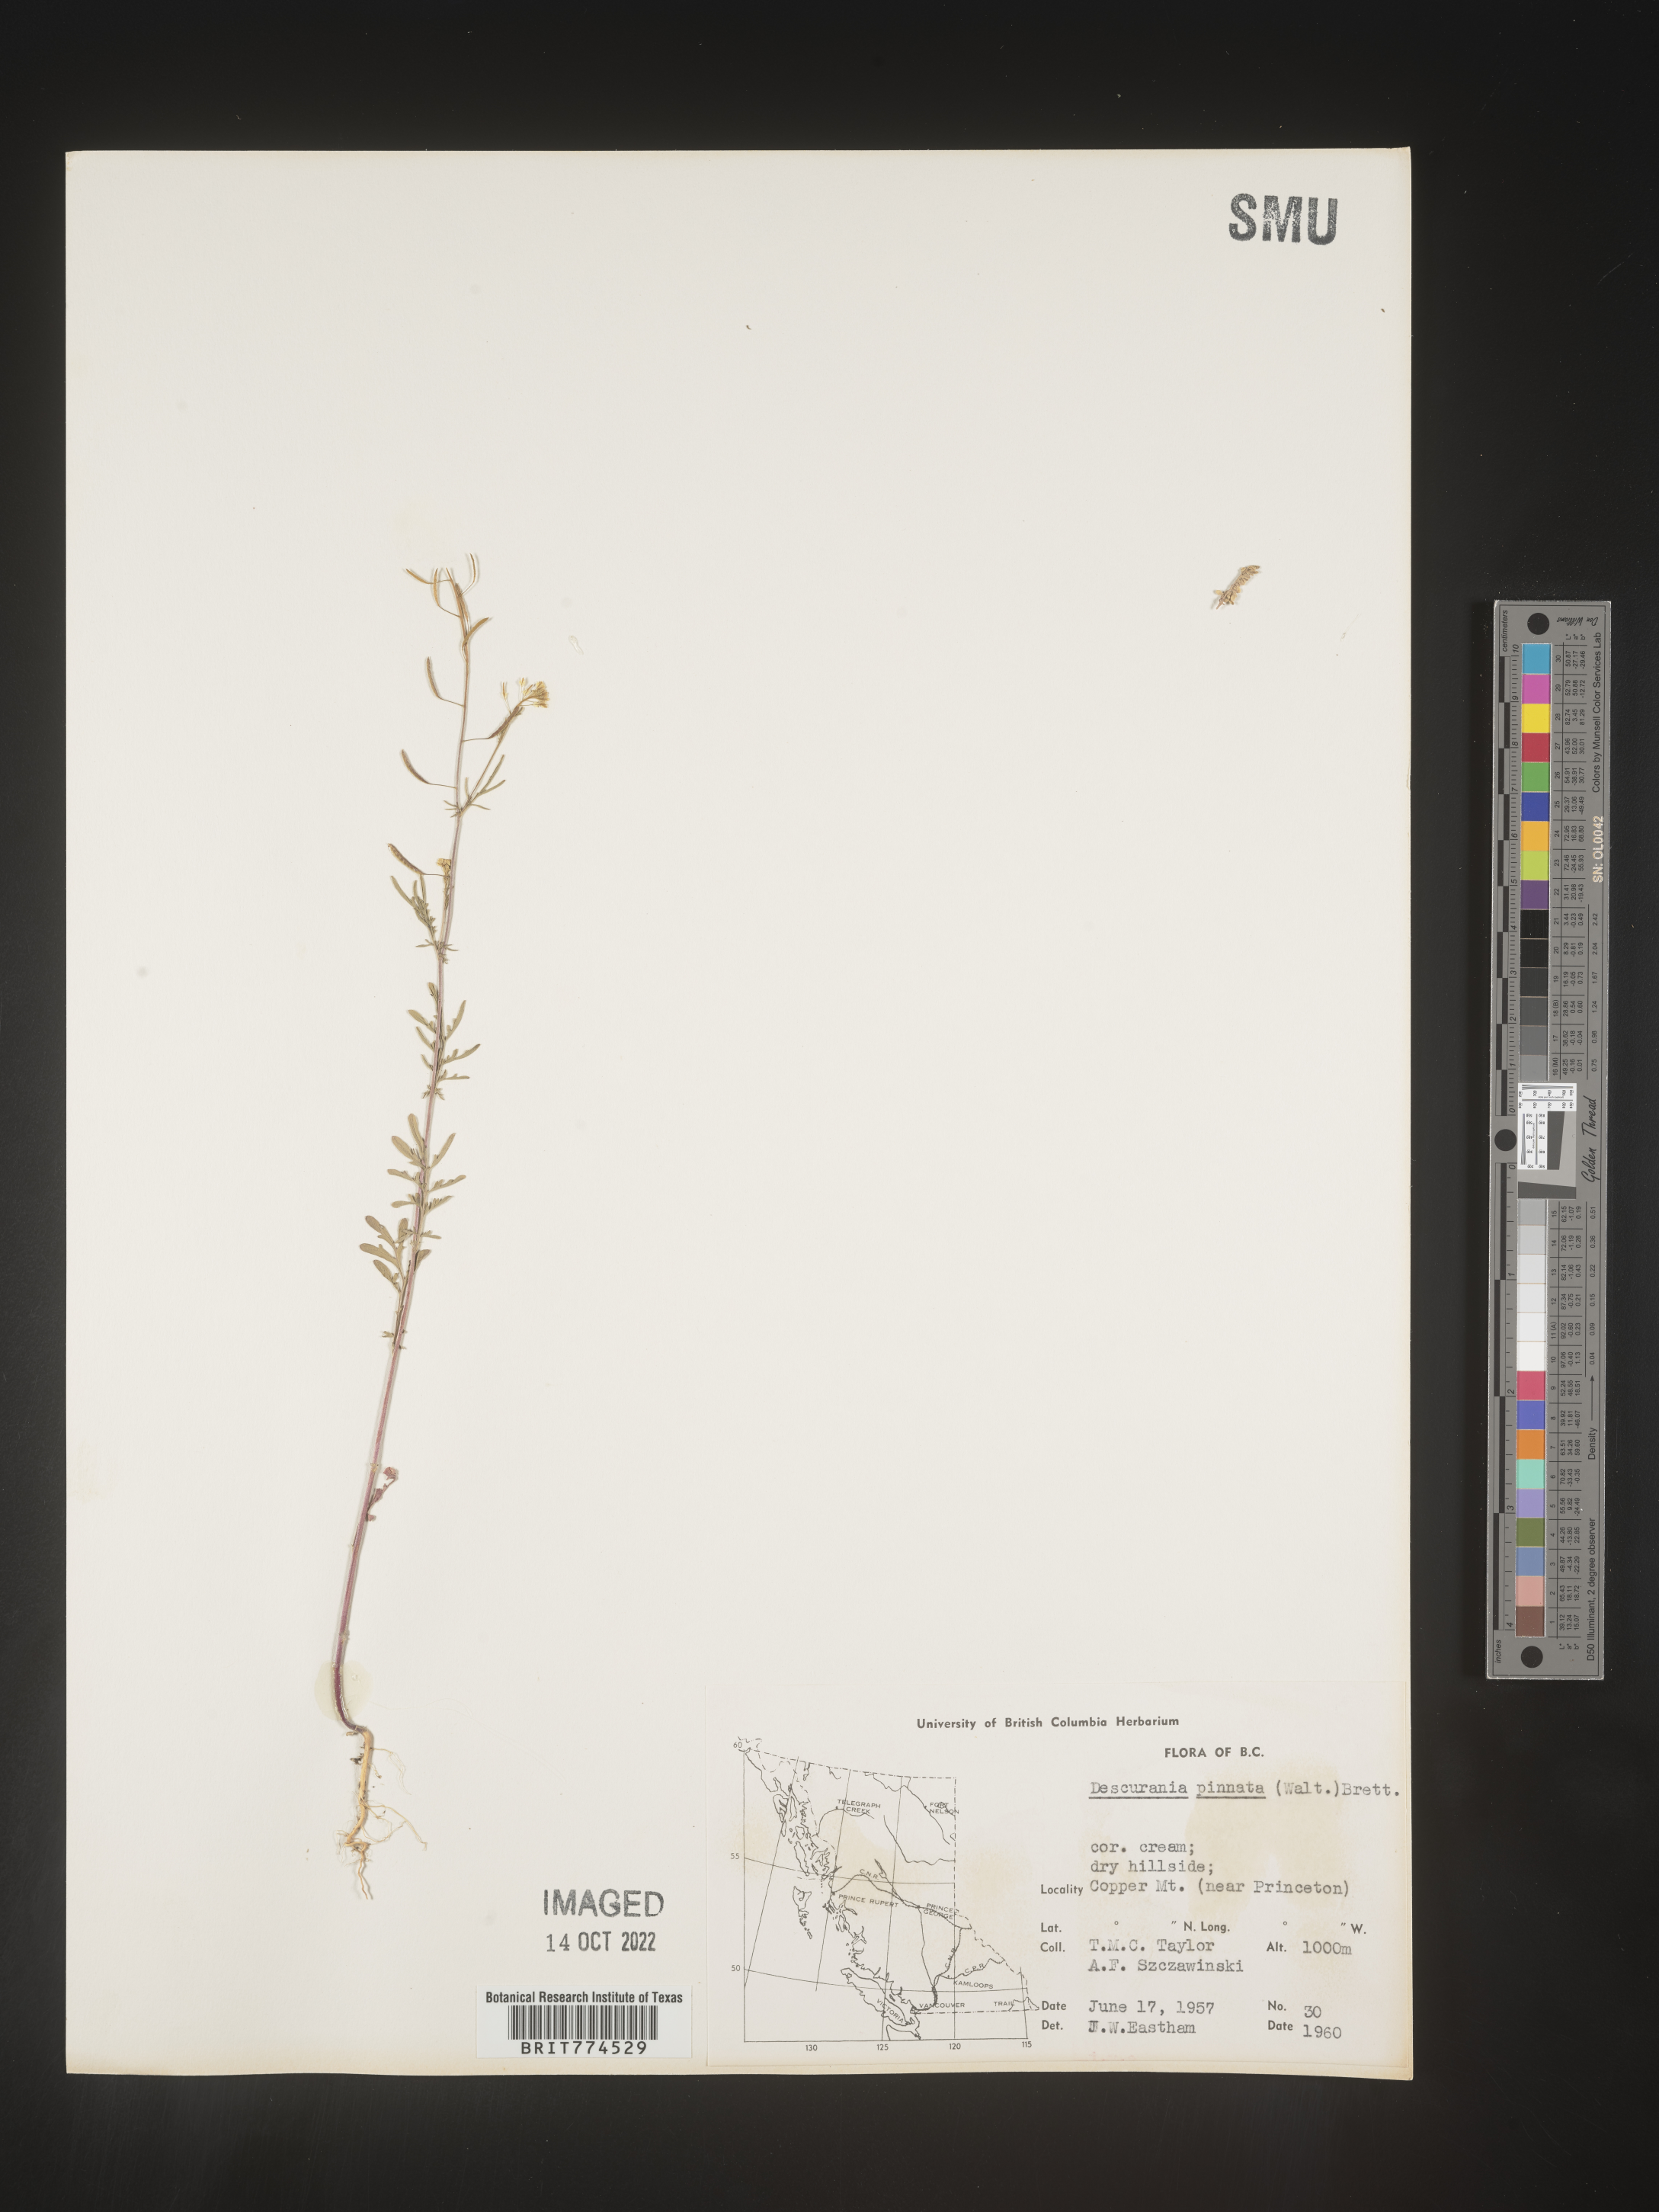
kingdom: Plantae
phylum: Tracheophyta
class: Magnoliopsida
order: Brassicales
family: Brassicaceae
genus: Descurainia
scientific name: Descurainia pinnata
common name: Western tansy mustard
